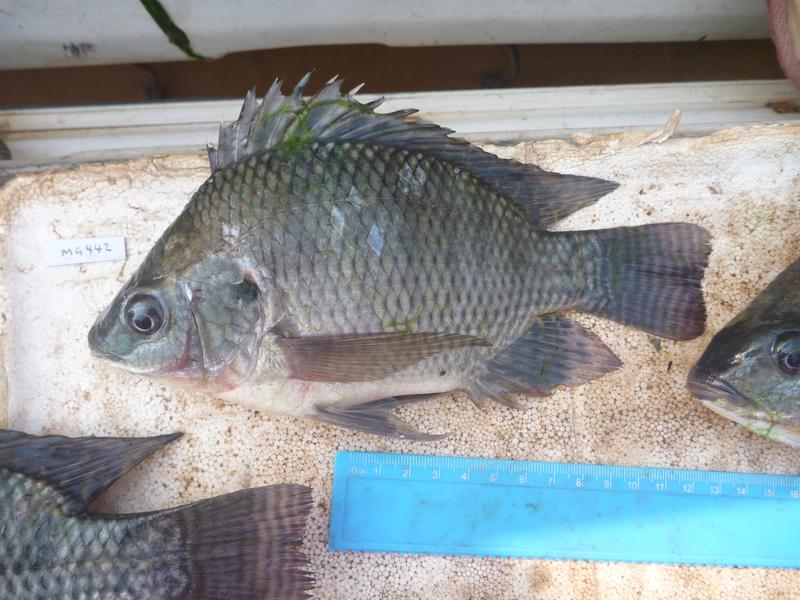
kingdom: Animalia
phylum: Chordata
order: Perciformes
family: Cichlidae
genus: Oreochromis
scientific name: Oreochromis niloticus
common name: Nile tilapia
